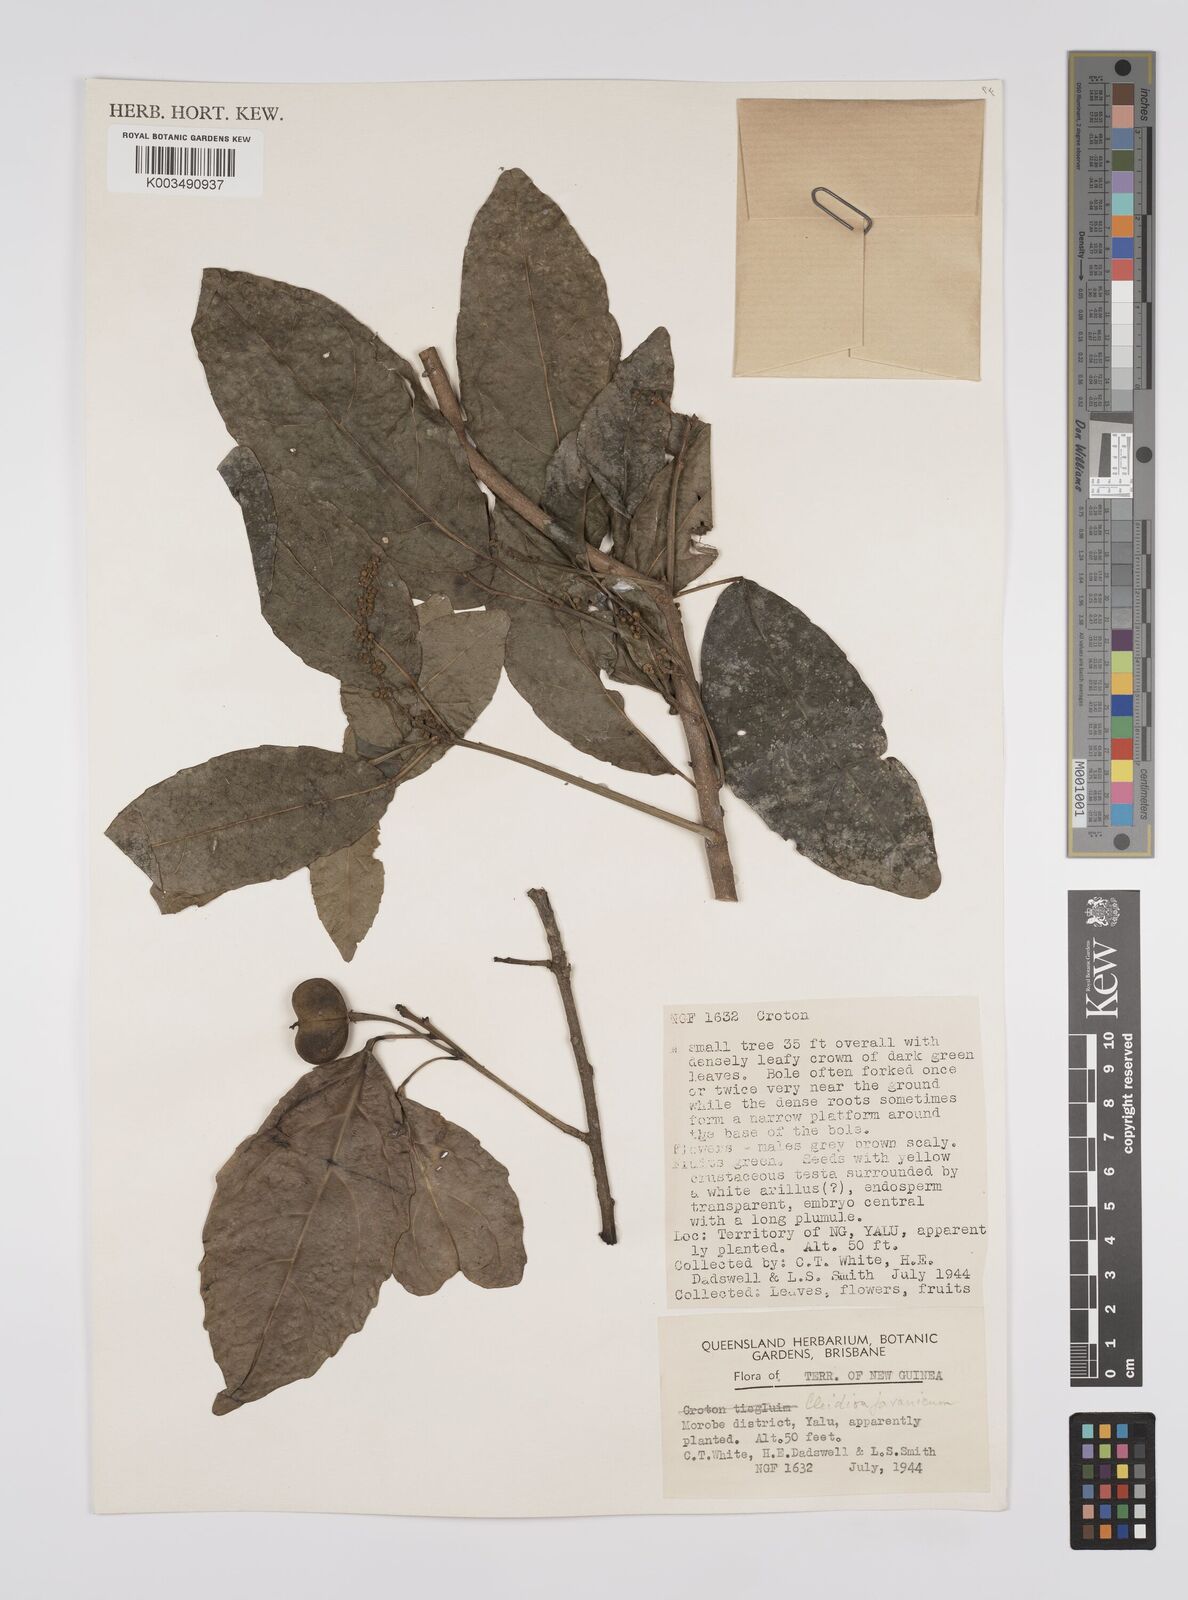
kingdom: Plantae
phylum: Tracheophyta
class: Magnoliopsida
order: Malpighiales
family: Euphorbiaceae
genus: Cleidion
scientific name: Cleidion javanicum
